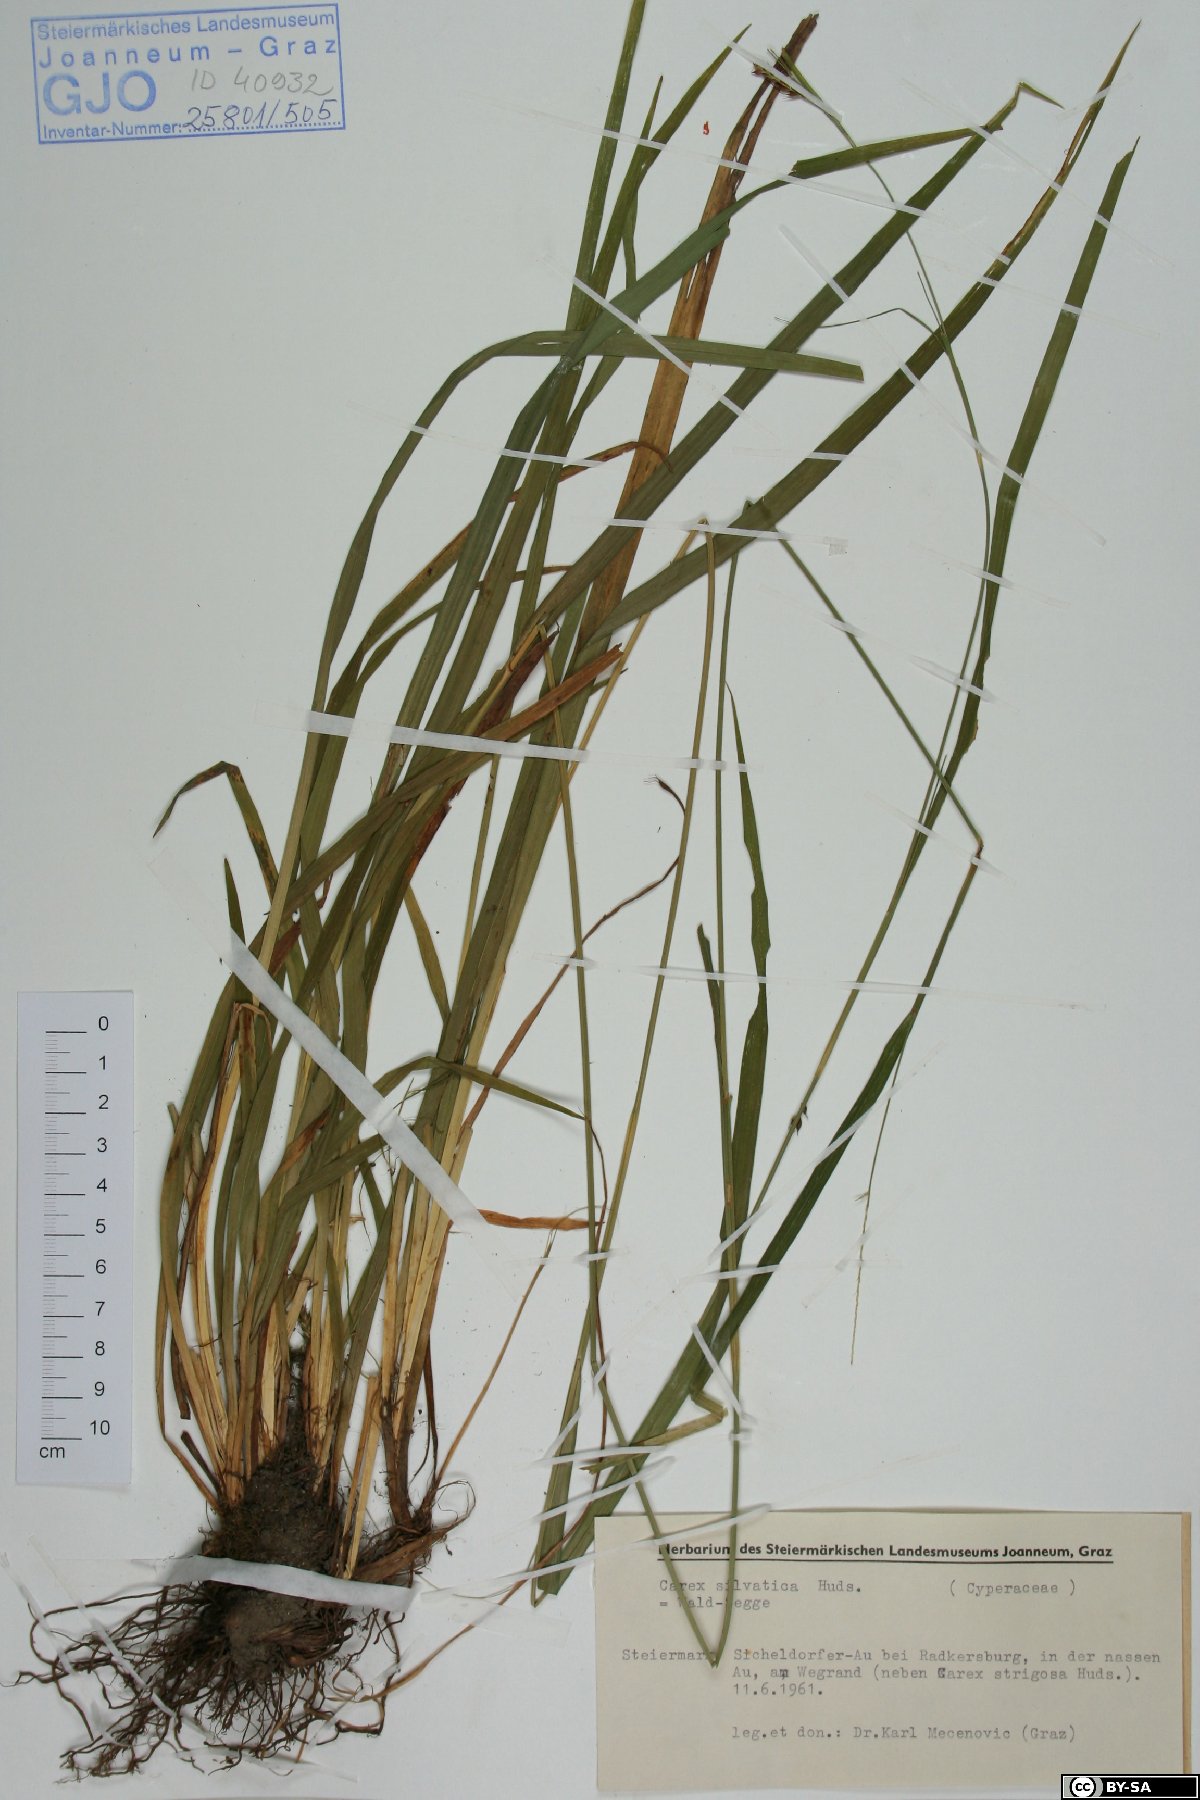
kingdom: Plantae
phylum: Tracheophyta
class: Liliopsida
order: Poales
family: Cyperaceae
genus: Carex
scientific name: Carex sylvatica
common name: Wood-sedge
